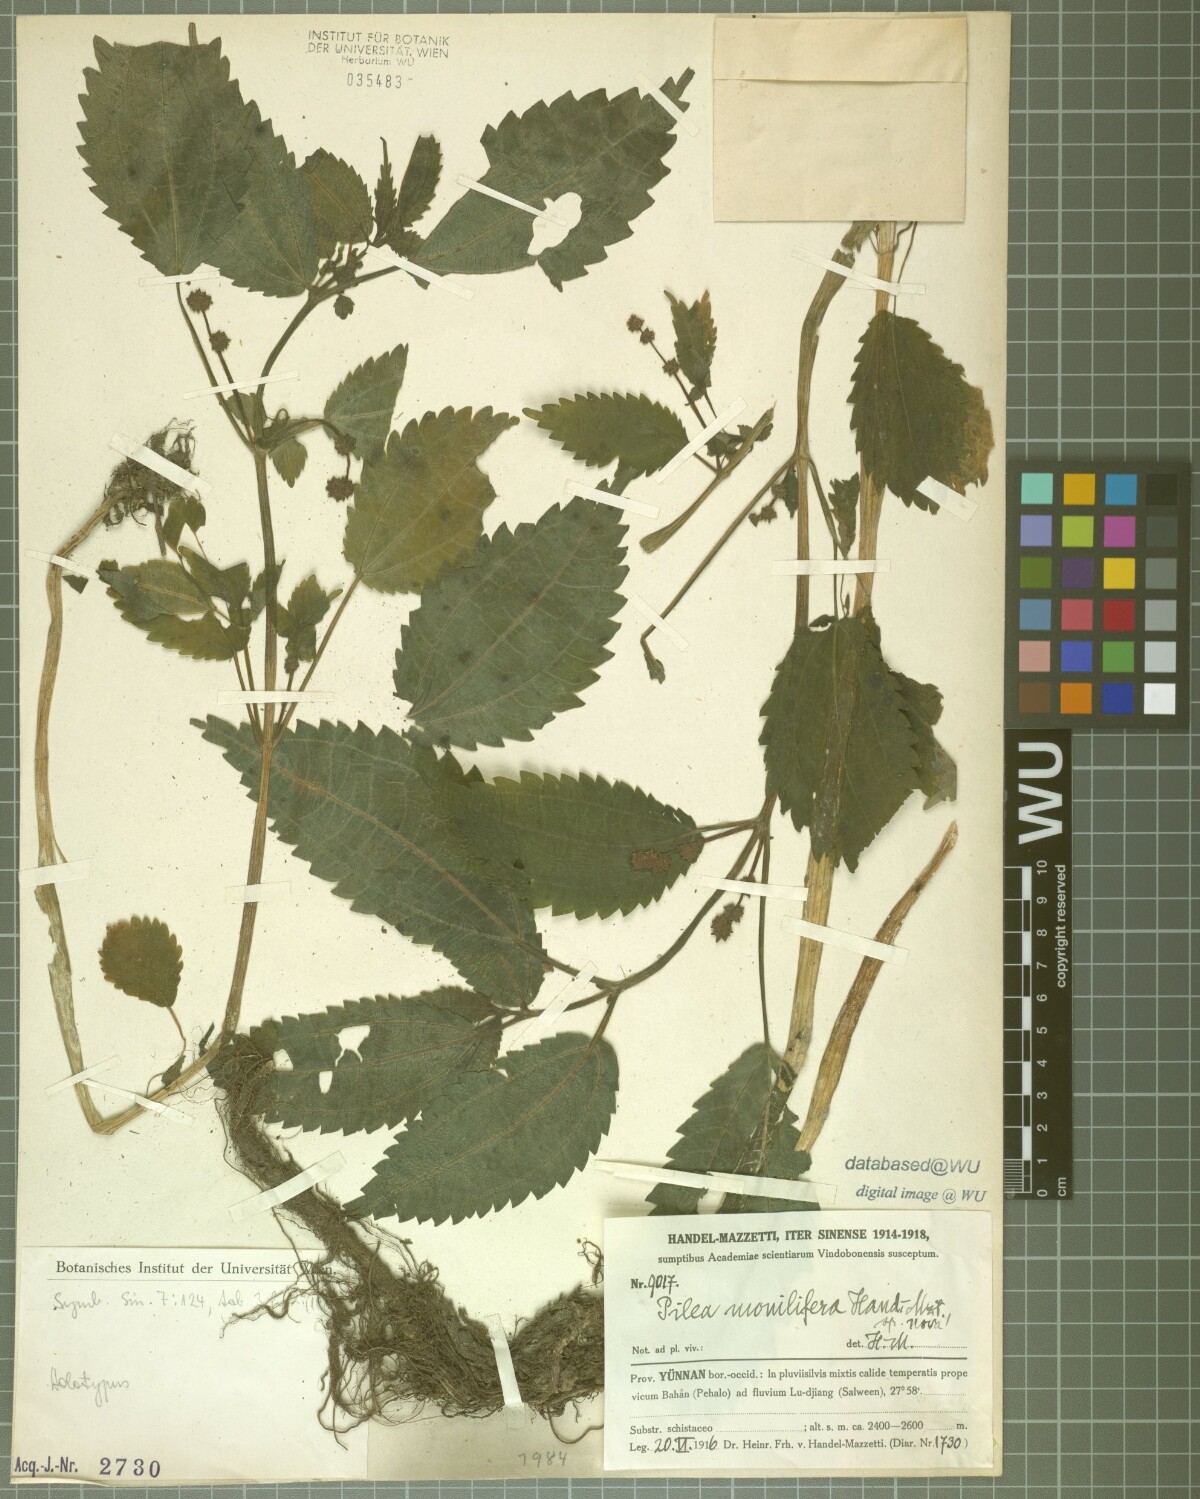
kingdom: Plantae
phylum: Tracheophyta
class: Magnoliopsida
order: Rosales
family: Urticaceae
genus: Pilea
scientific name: Pilea monilifera
